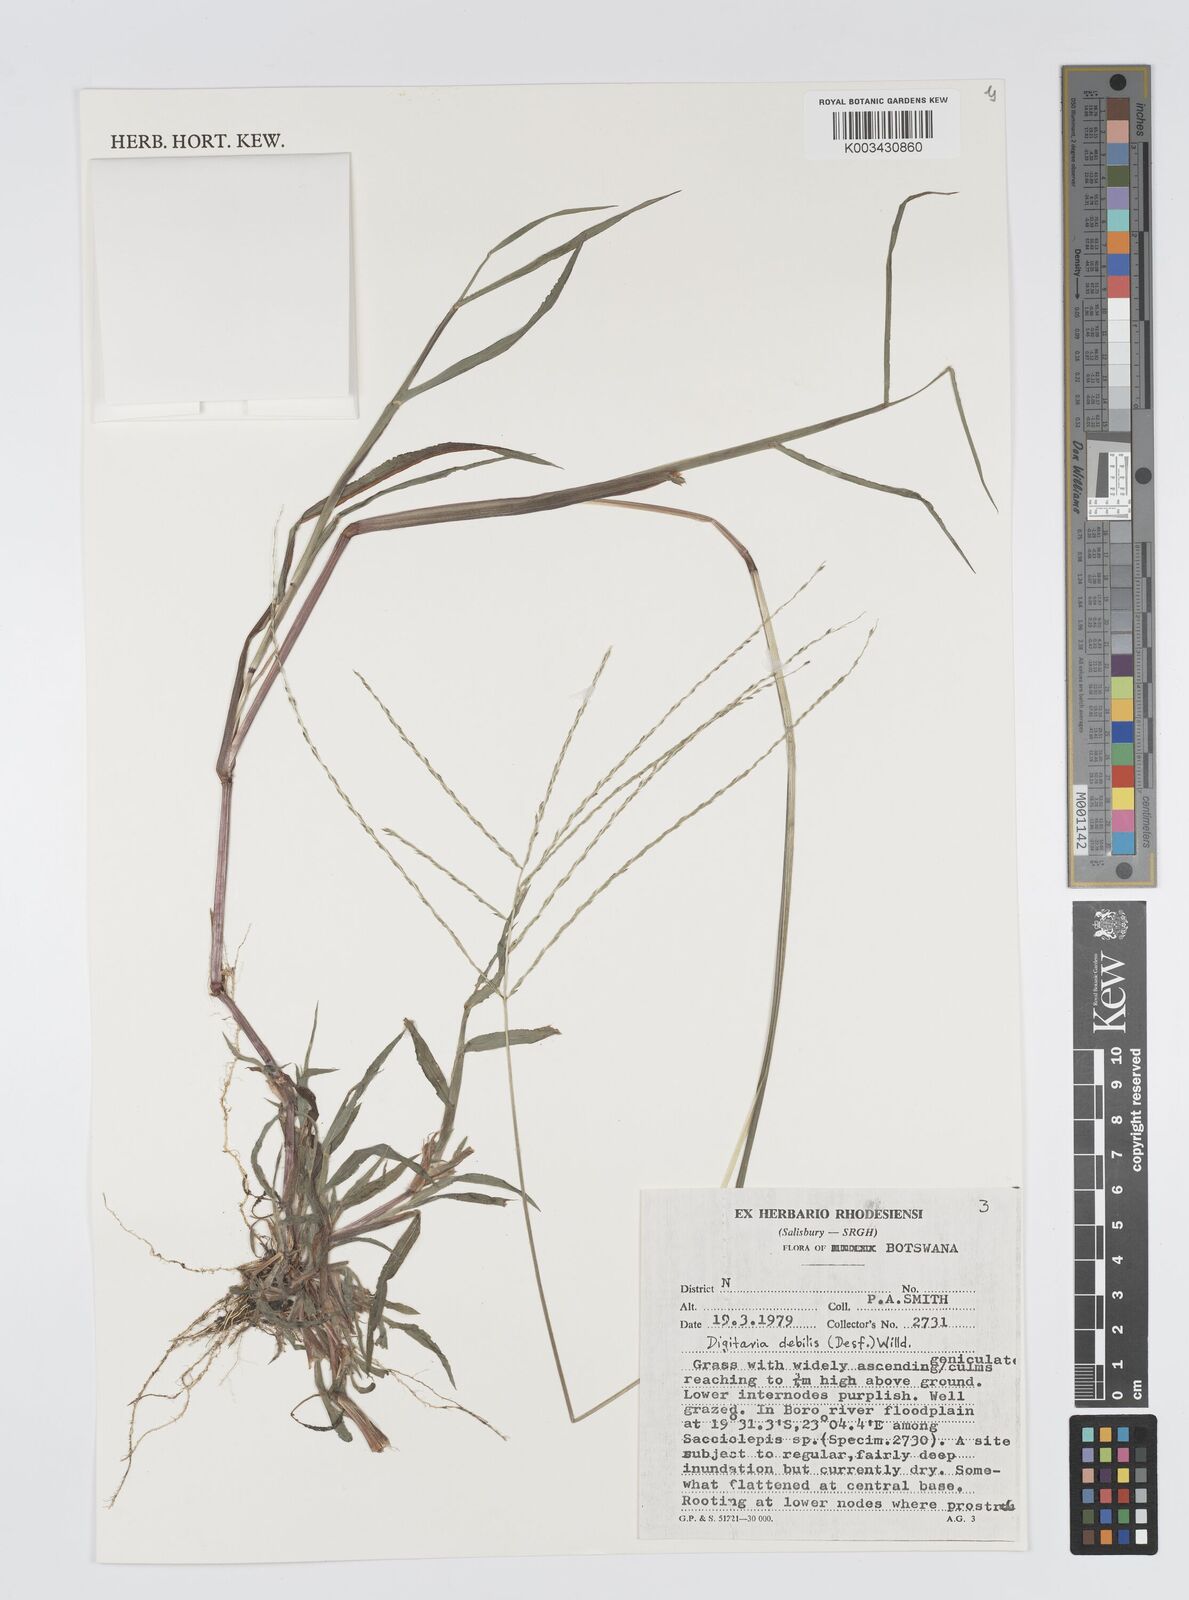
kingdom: Plantae
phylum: Tracheophyta
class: Liliopsida
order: Poales
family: Poaceae
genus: Digitaria
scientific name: Digitaria debilis
